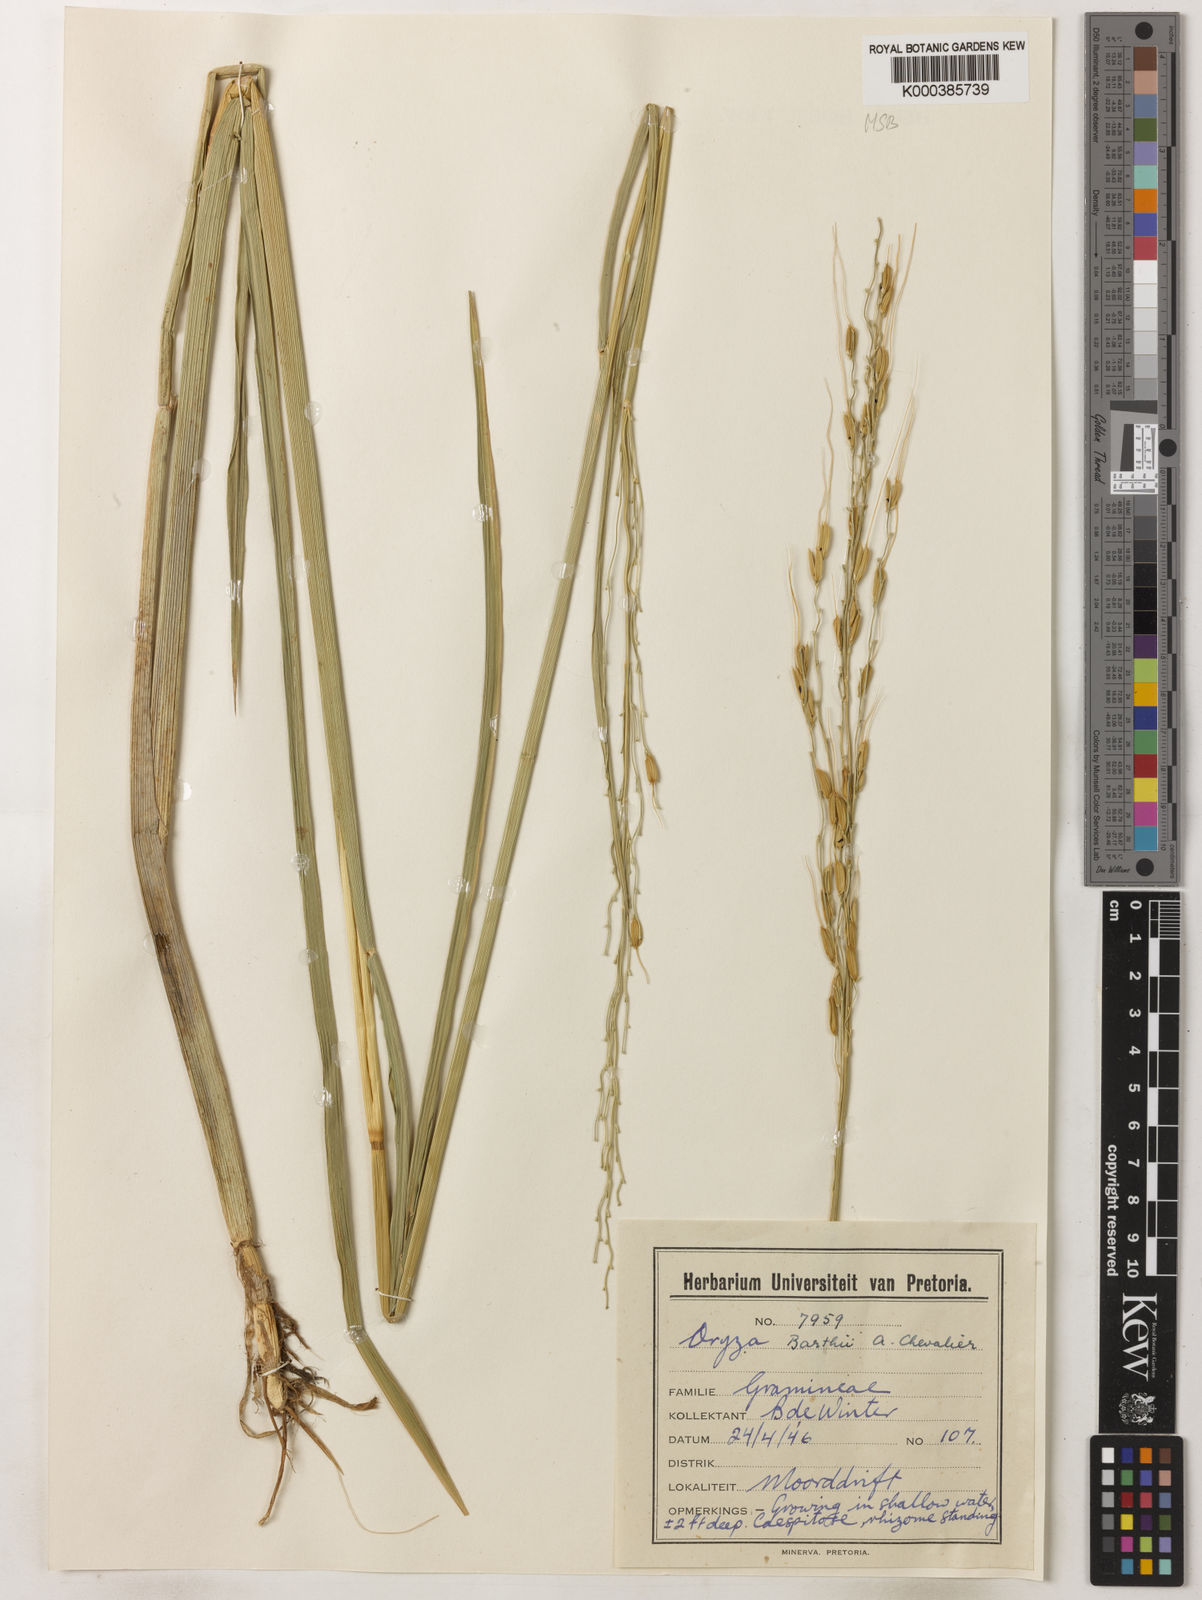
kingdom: Plantae
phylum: Tracheophyta
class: Liliopsida
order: Poales
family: Poaceae
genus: Oryza
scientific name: Oryza longistaminata
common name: Red rice
